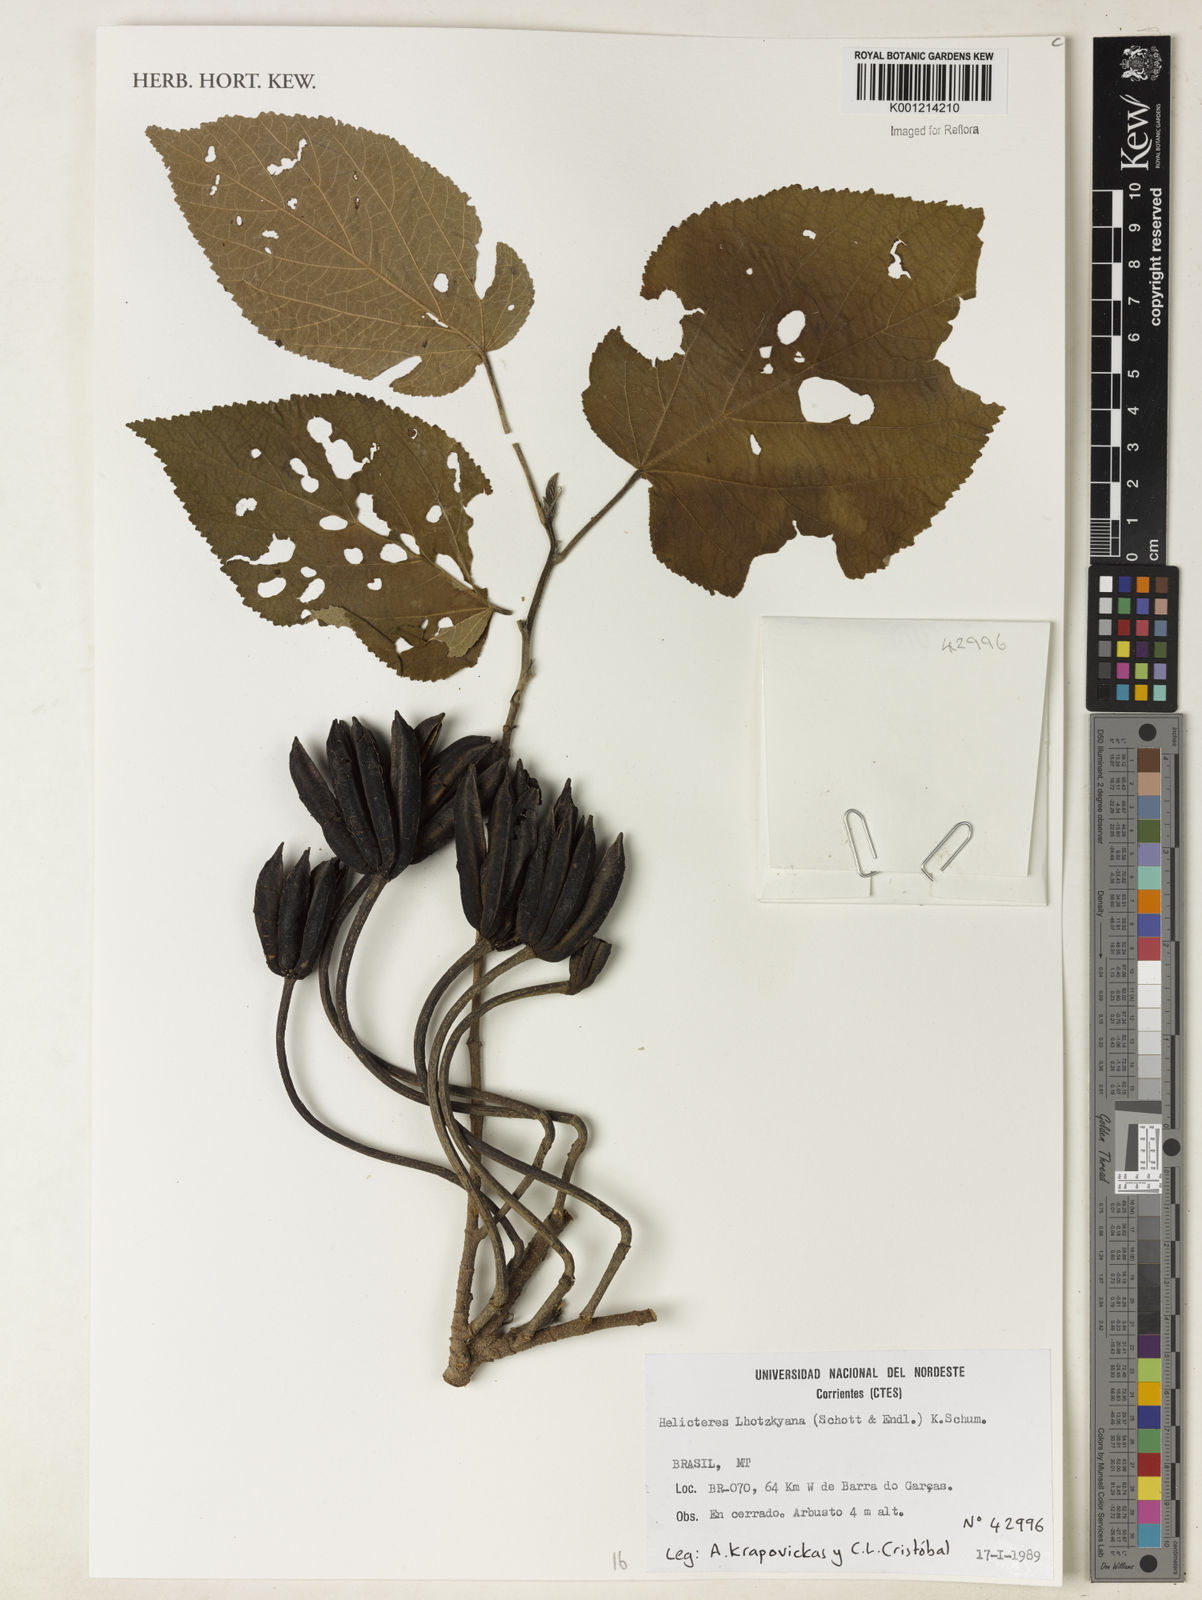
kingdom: Plantae
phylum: Tracheophyta
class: Magnoliopsida
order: Malvales
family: Malvaceae
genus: Helicteres
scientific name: Helicteres lhotzkyana
